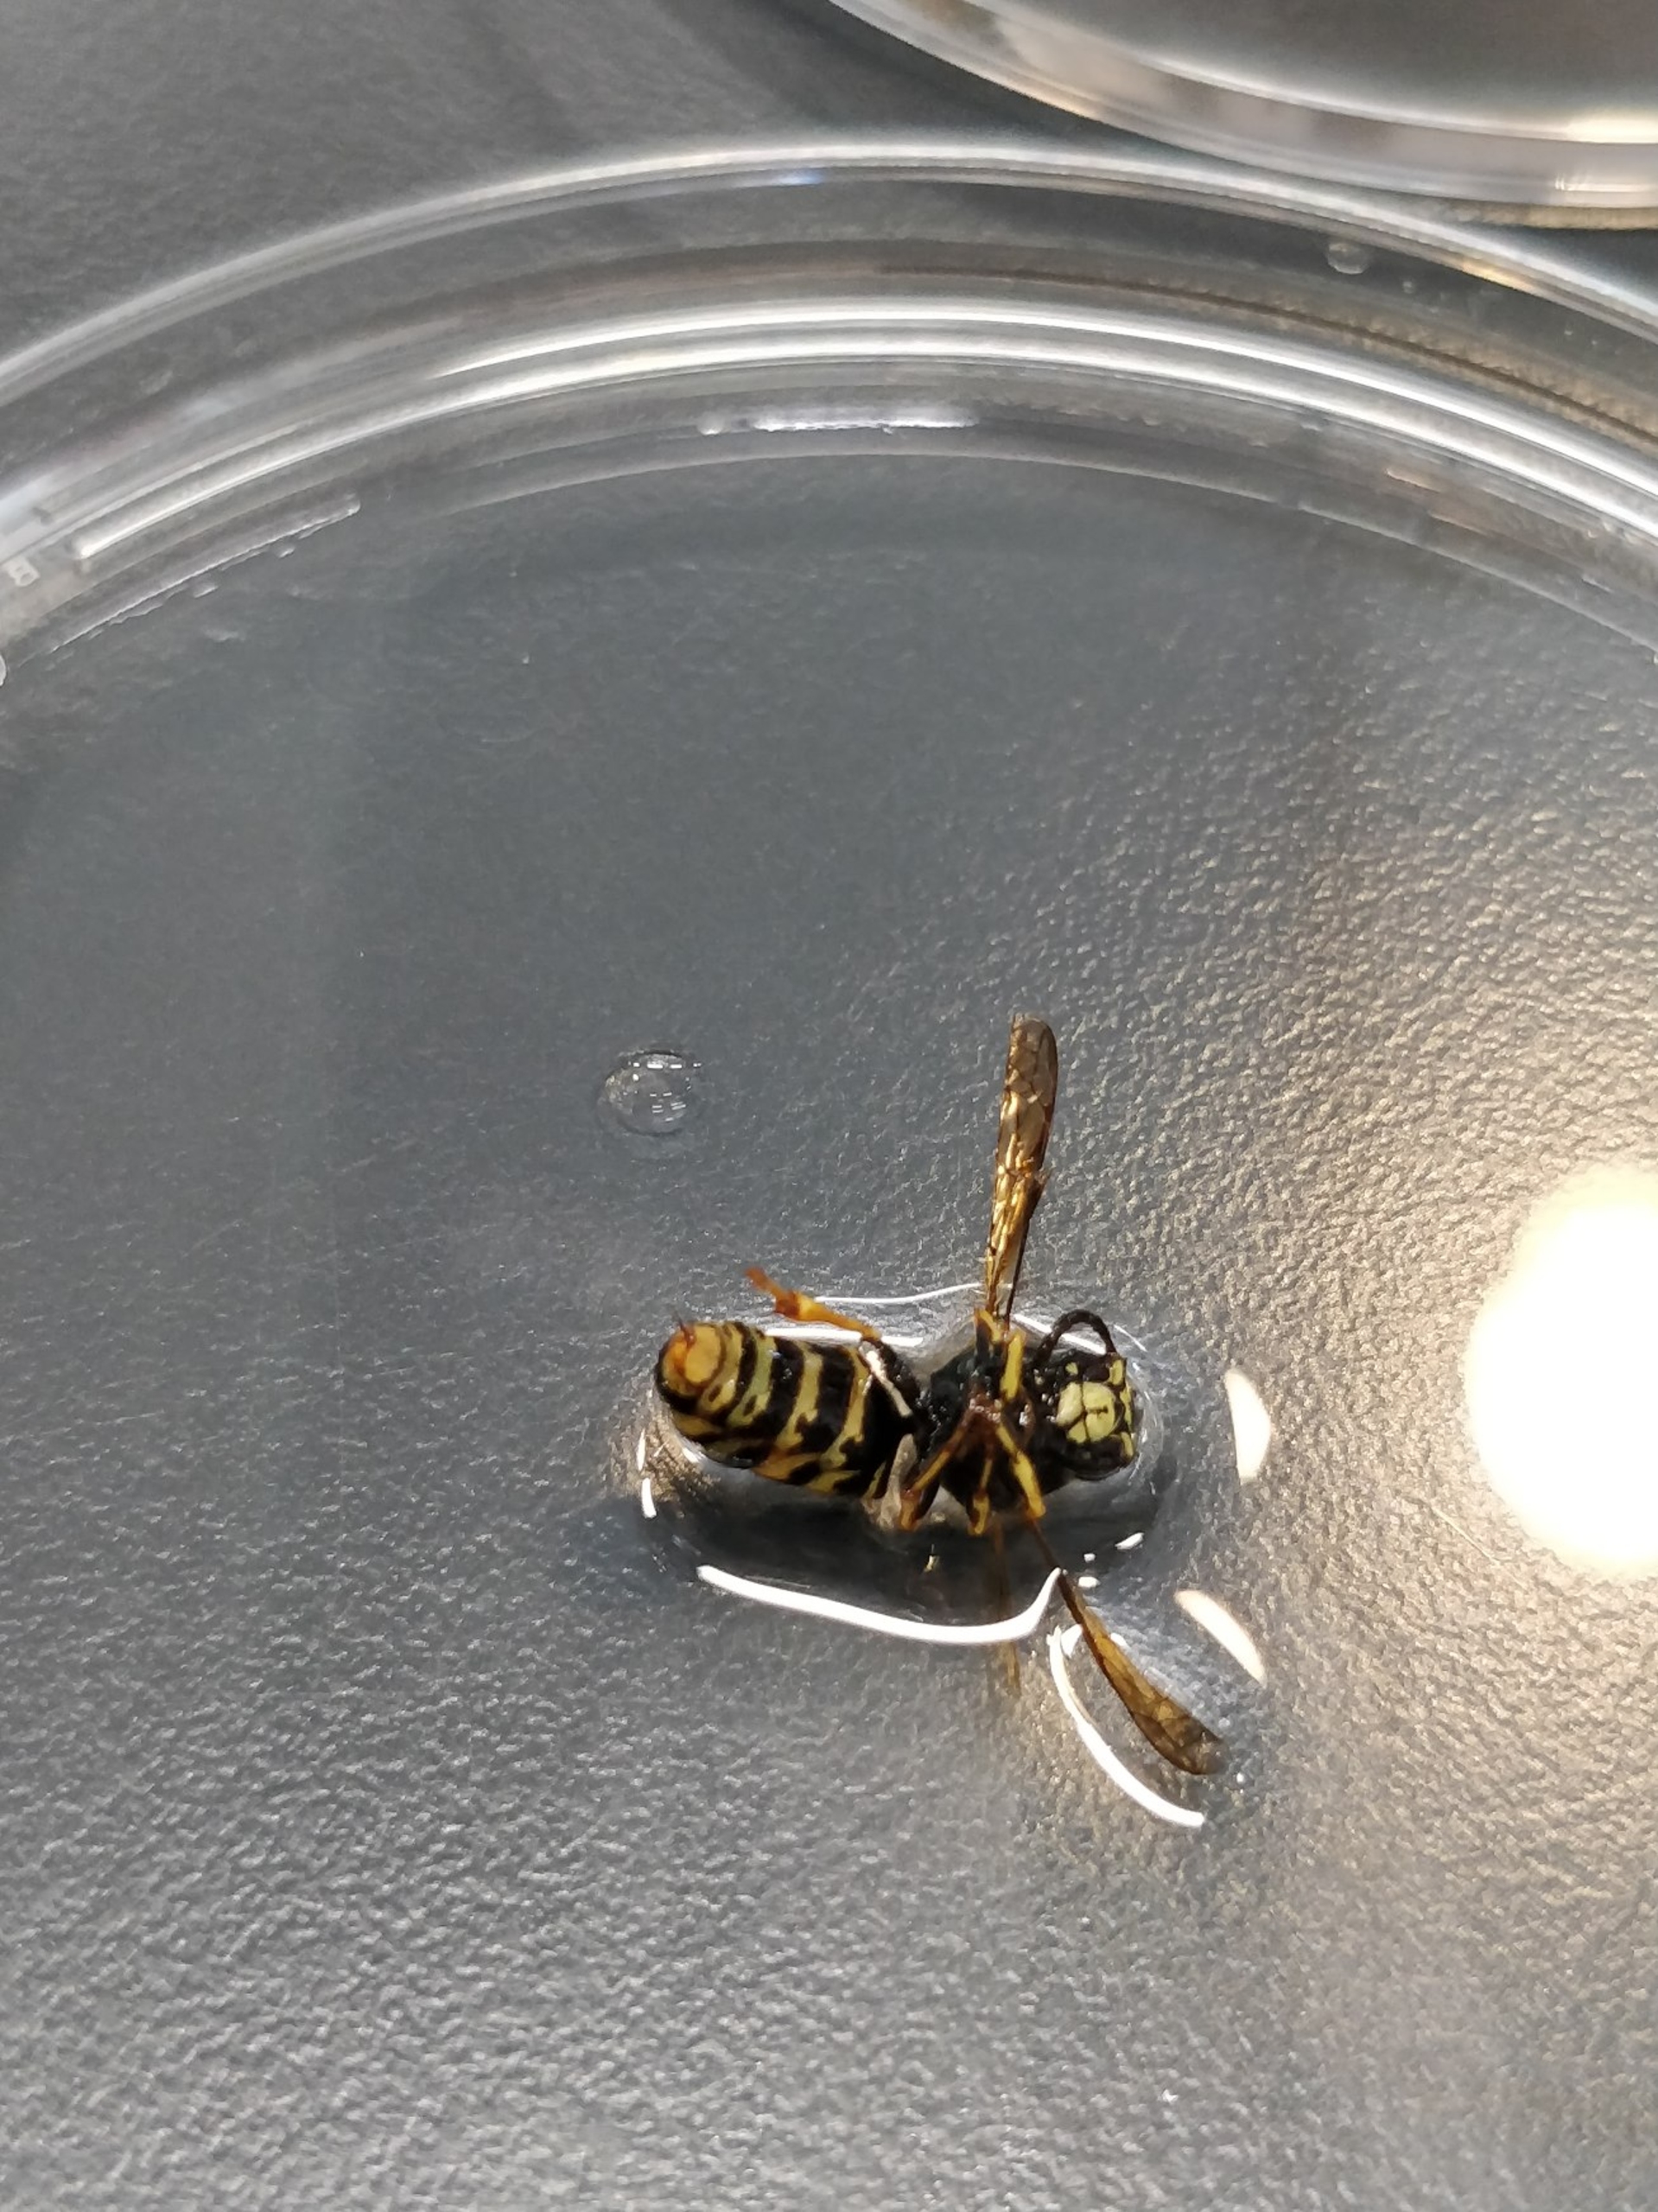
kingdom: Animalia
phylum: Arthropoda
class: Insecta
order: Hymenoptera
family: Vespidae
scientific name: Vespidae
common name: Gedehamse
